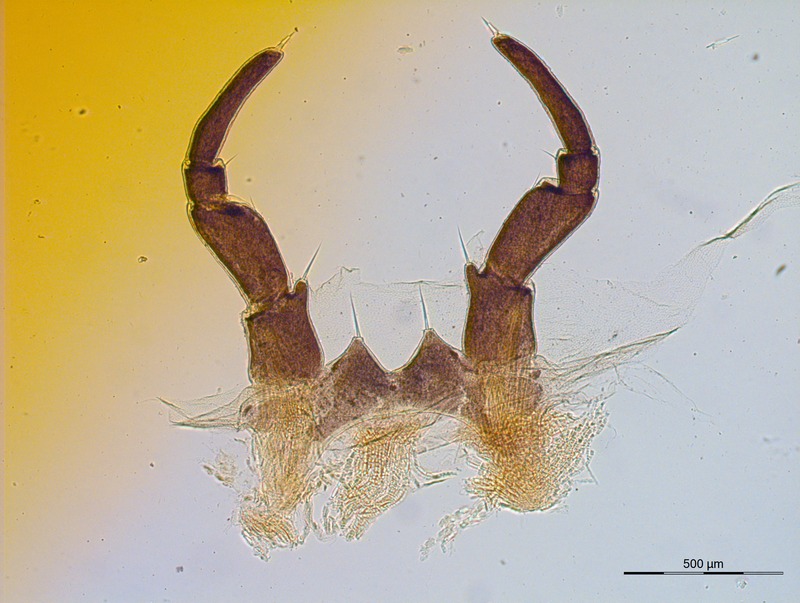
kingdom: Animalia
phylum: Arthropoda
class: Diplopoda
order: Glomerida
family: Glomeridae
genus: Glomeris
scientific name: Glomeris schubarti
